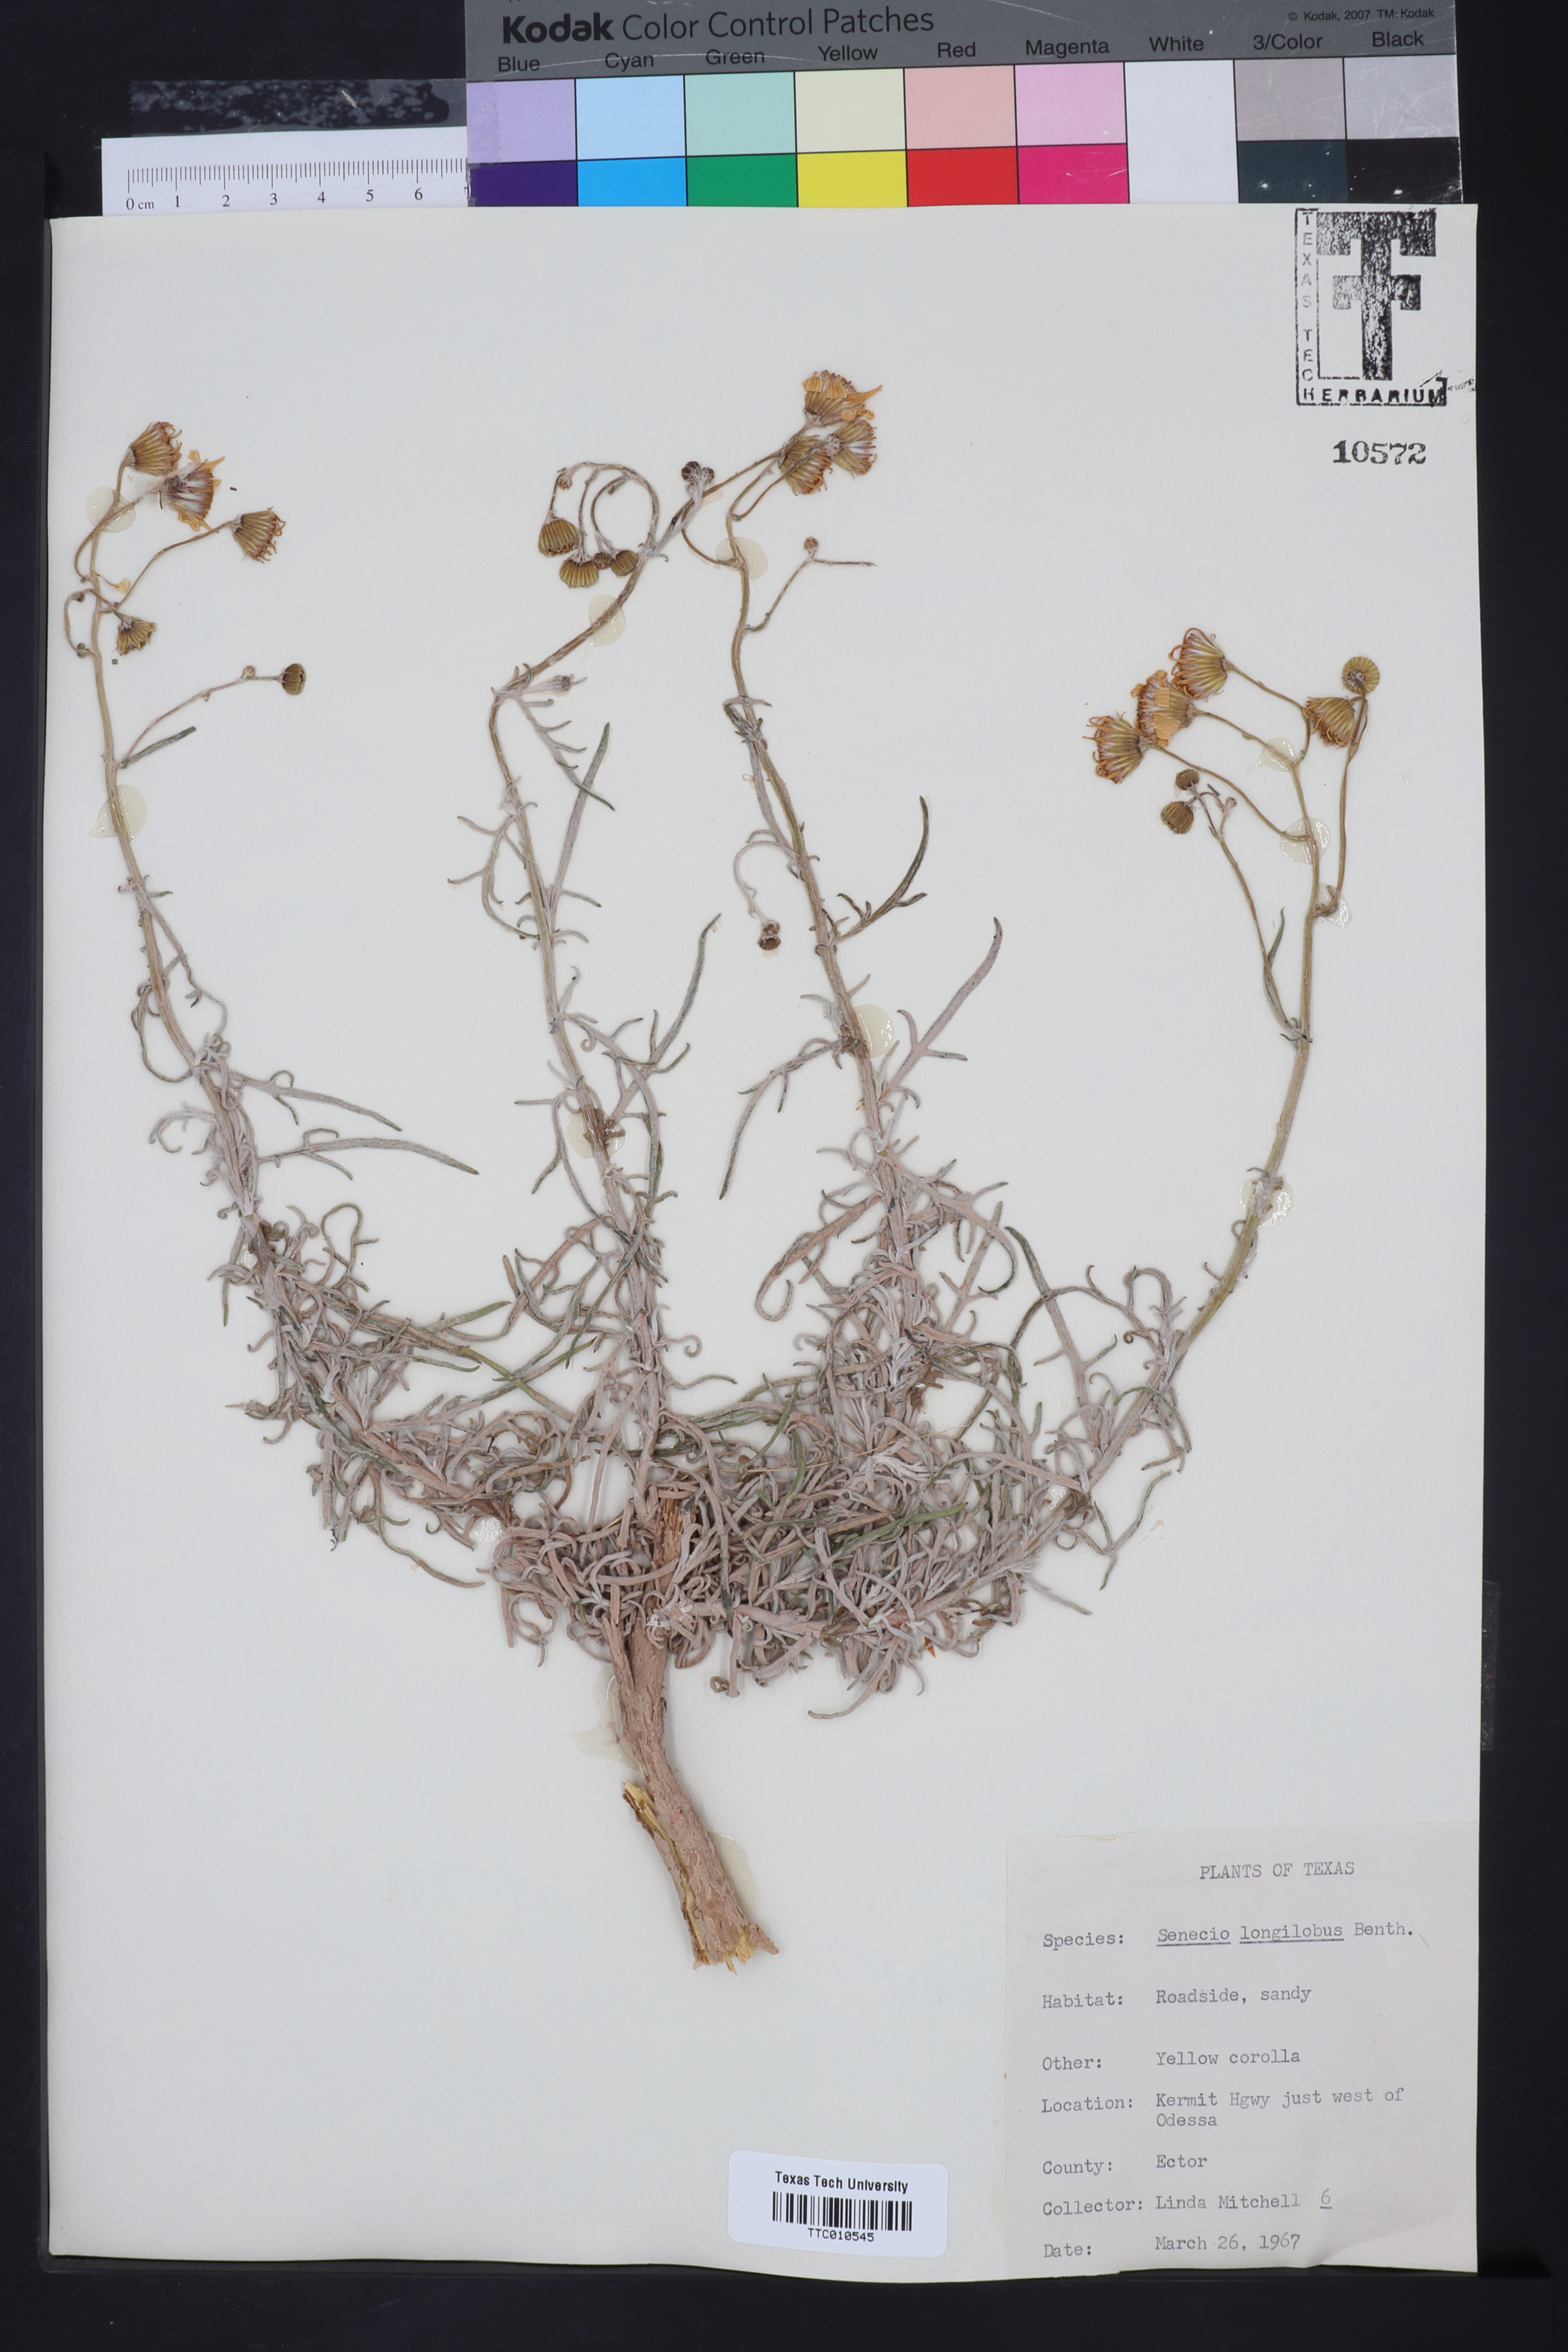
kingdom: Plantae
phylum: Tracheophyta
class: Magnoliopsida
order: Asterales
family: Asteraceae
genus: Senecio
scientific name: Senecio flaccidus
